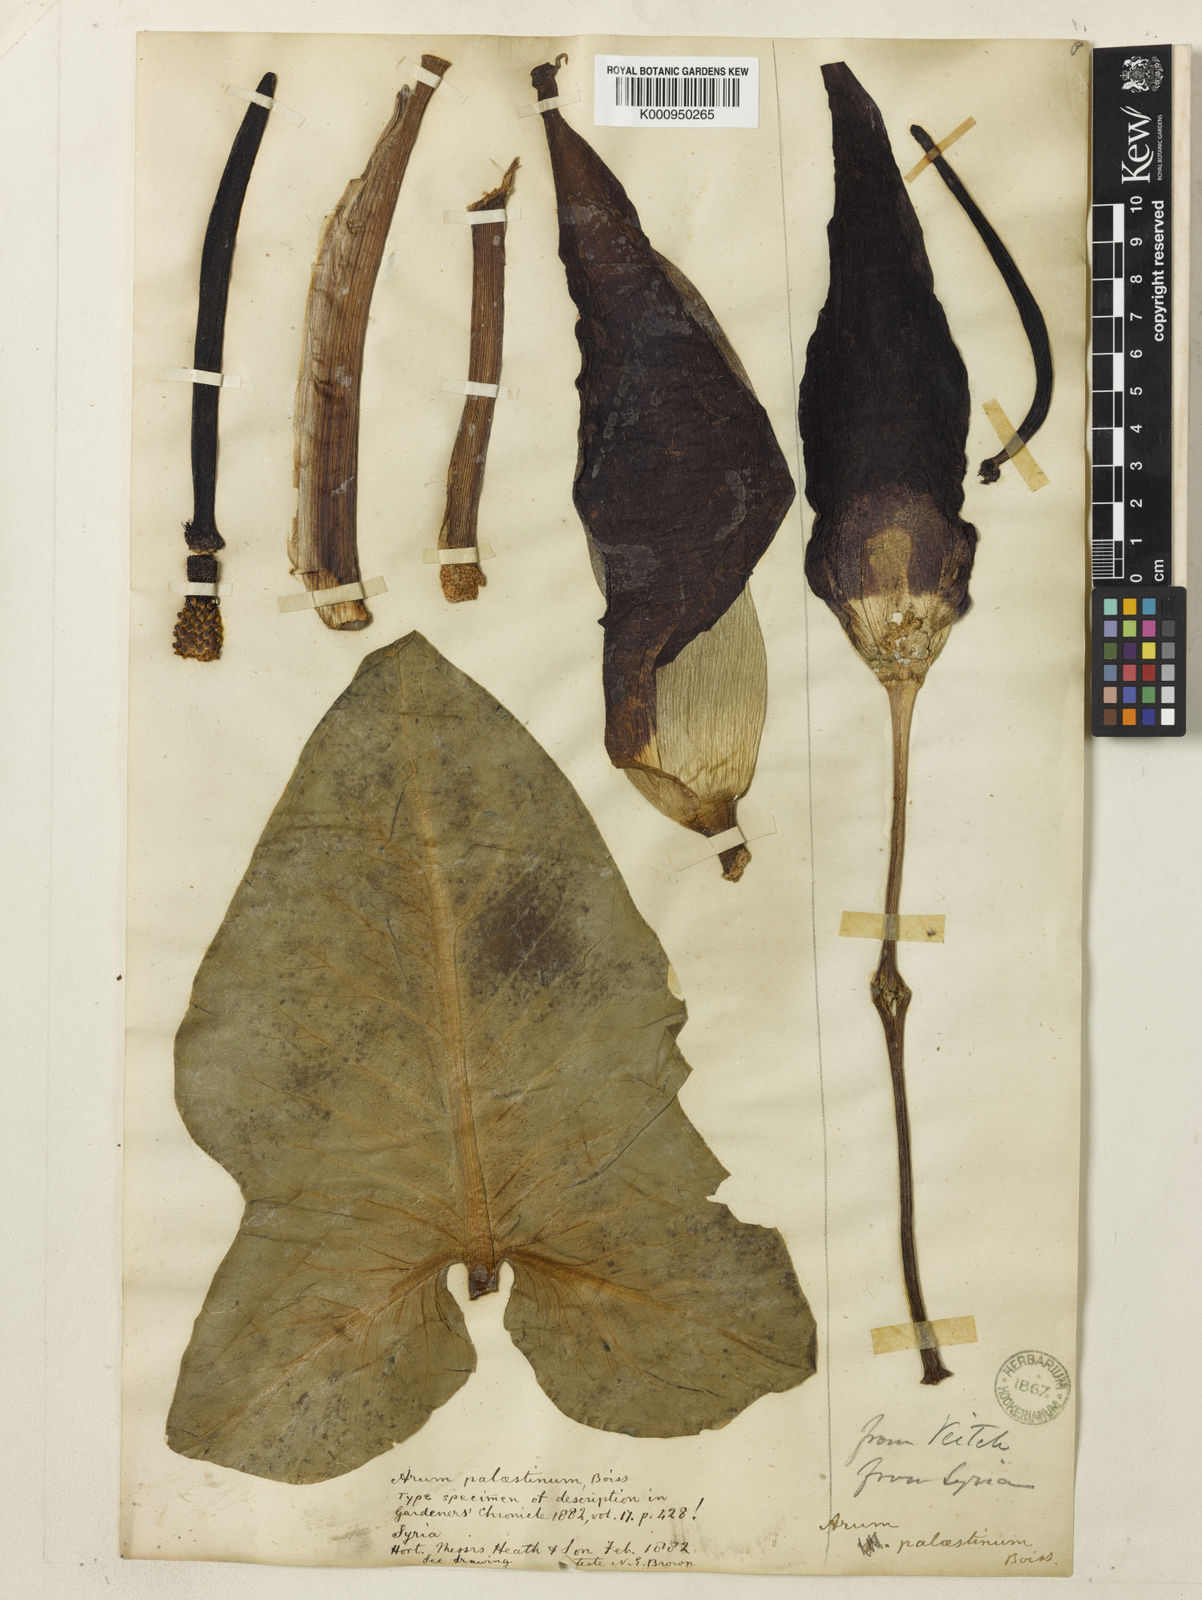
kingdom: Plantae
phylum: Tracheophyta
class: Liliopsida
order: Alismatales
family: Araceae
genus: Arum
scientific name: Arum palaestinum
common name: Solomon's lily
